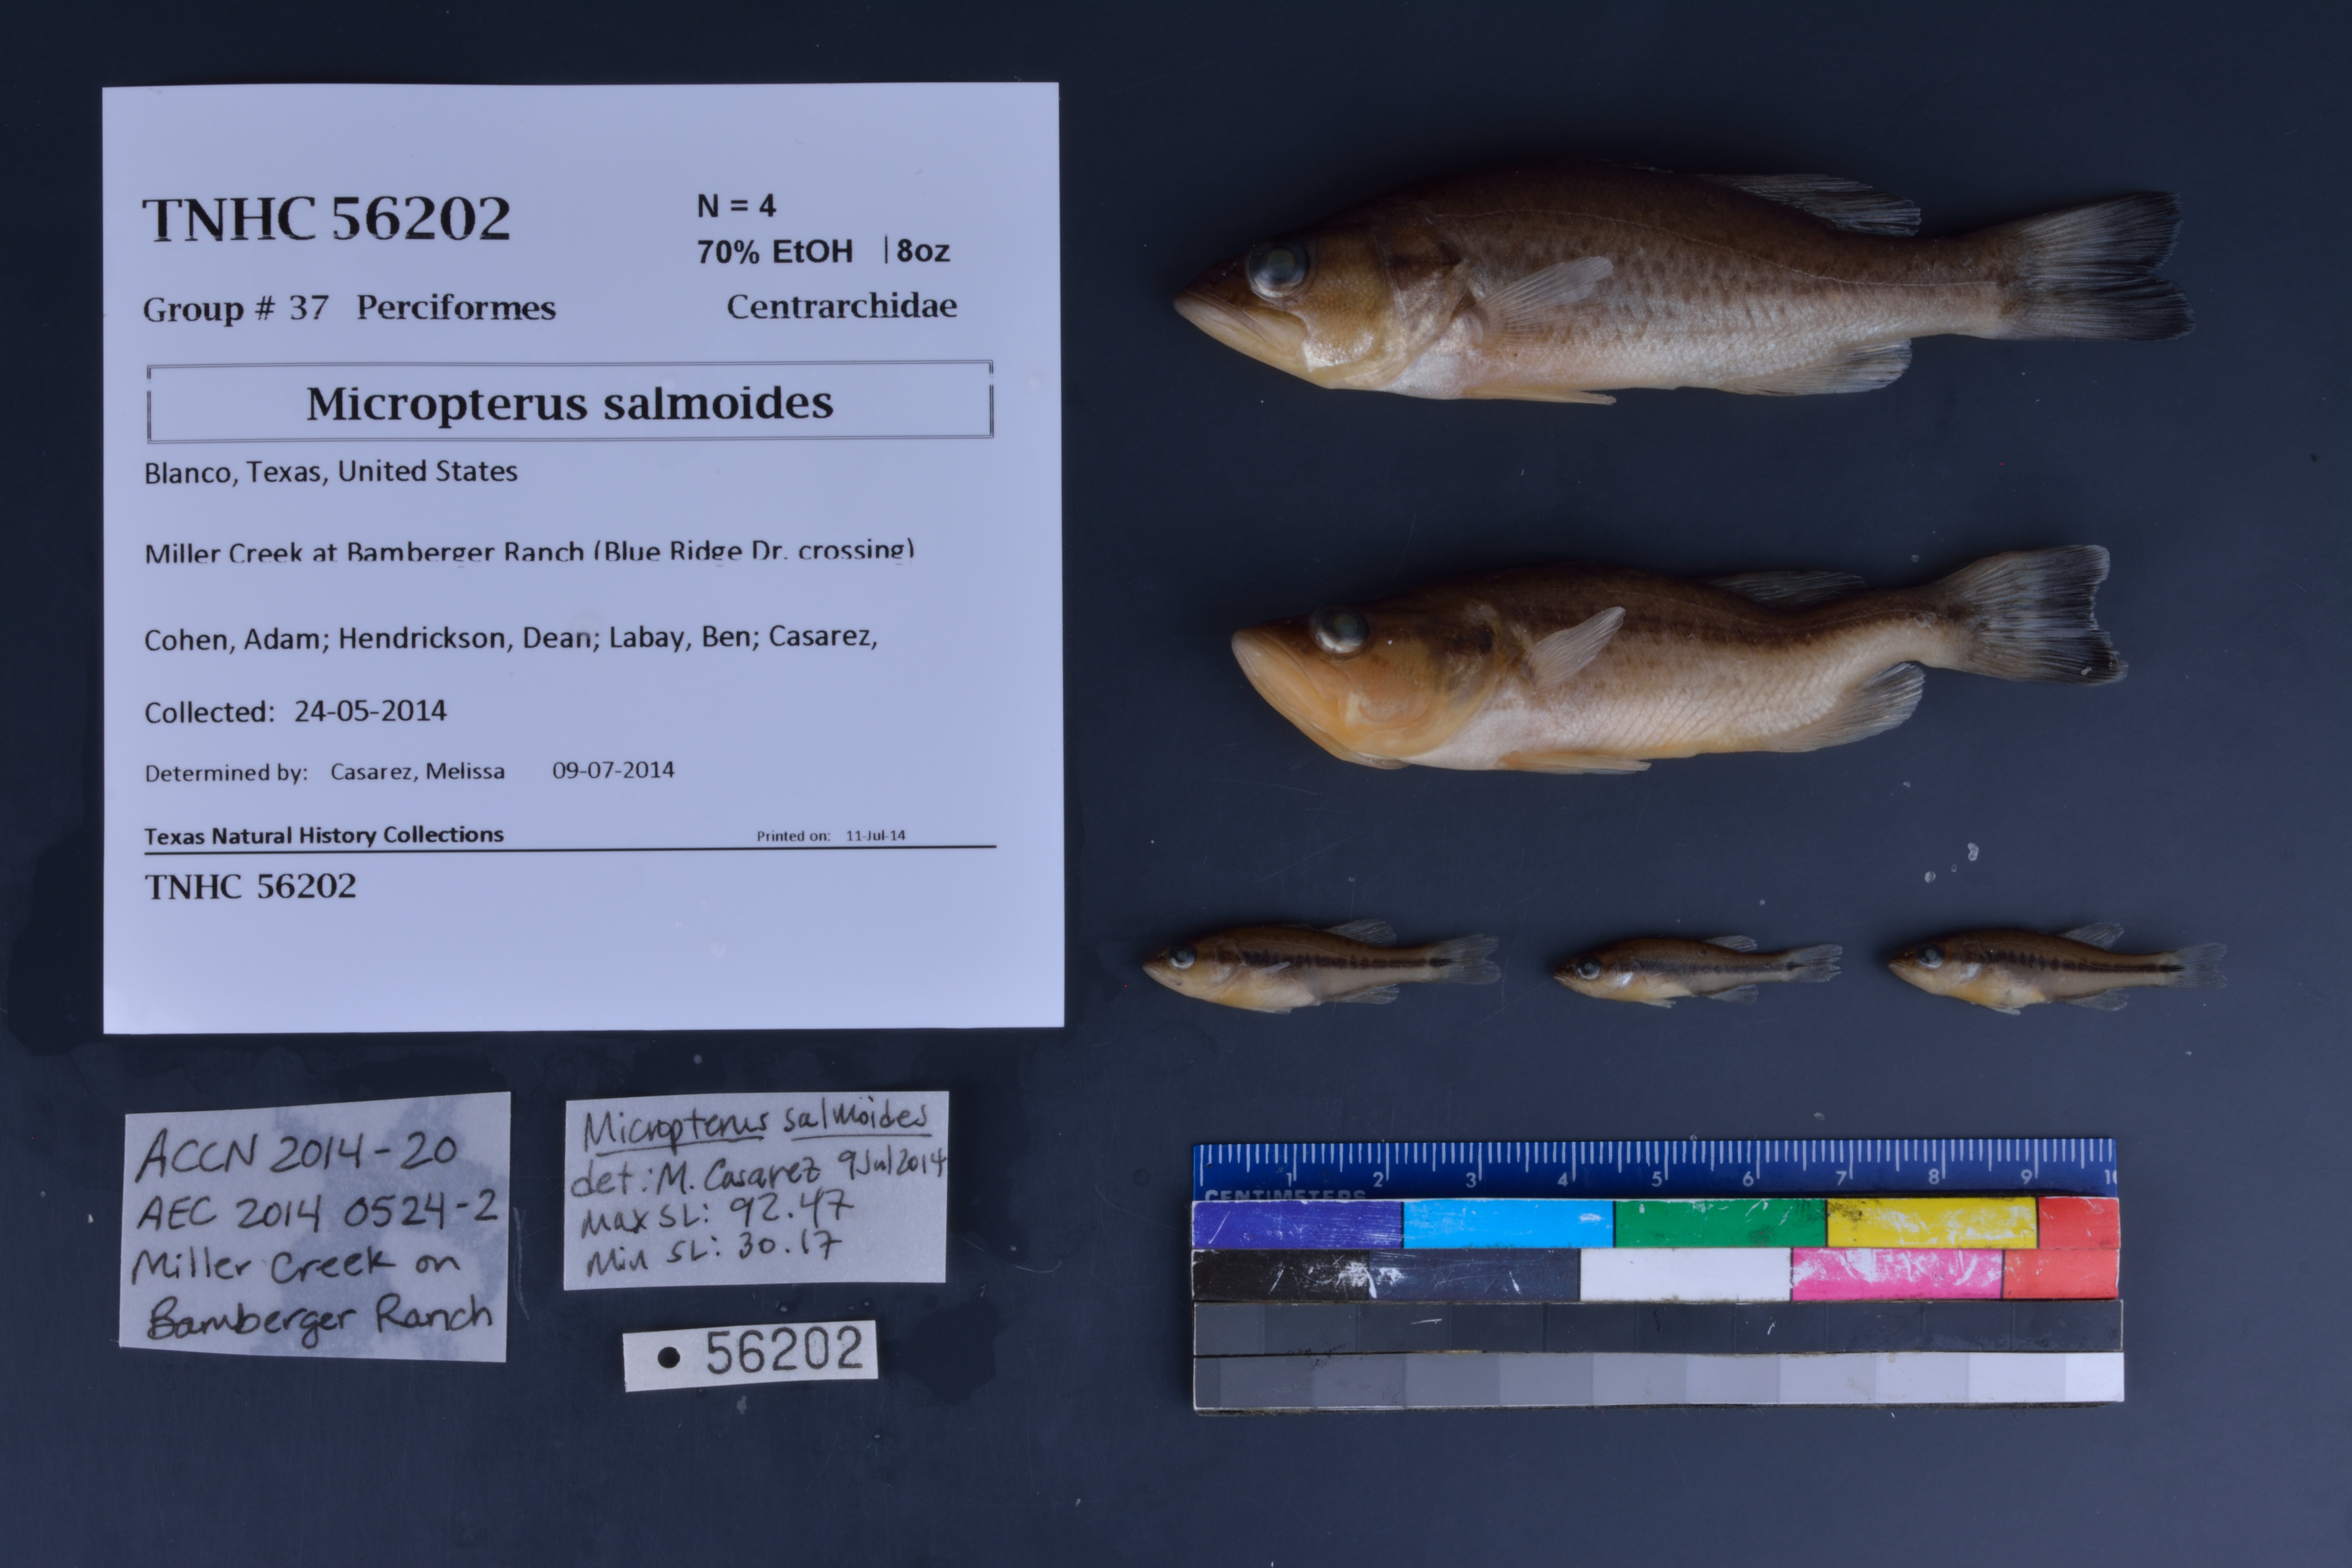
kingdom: Animalia
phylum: Chordata
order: Perciformes
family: Centrarchidae
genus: Micropterus
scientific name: Micropterus salmoides
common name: Largemouth bass
